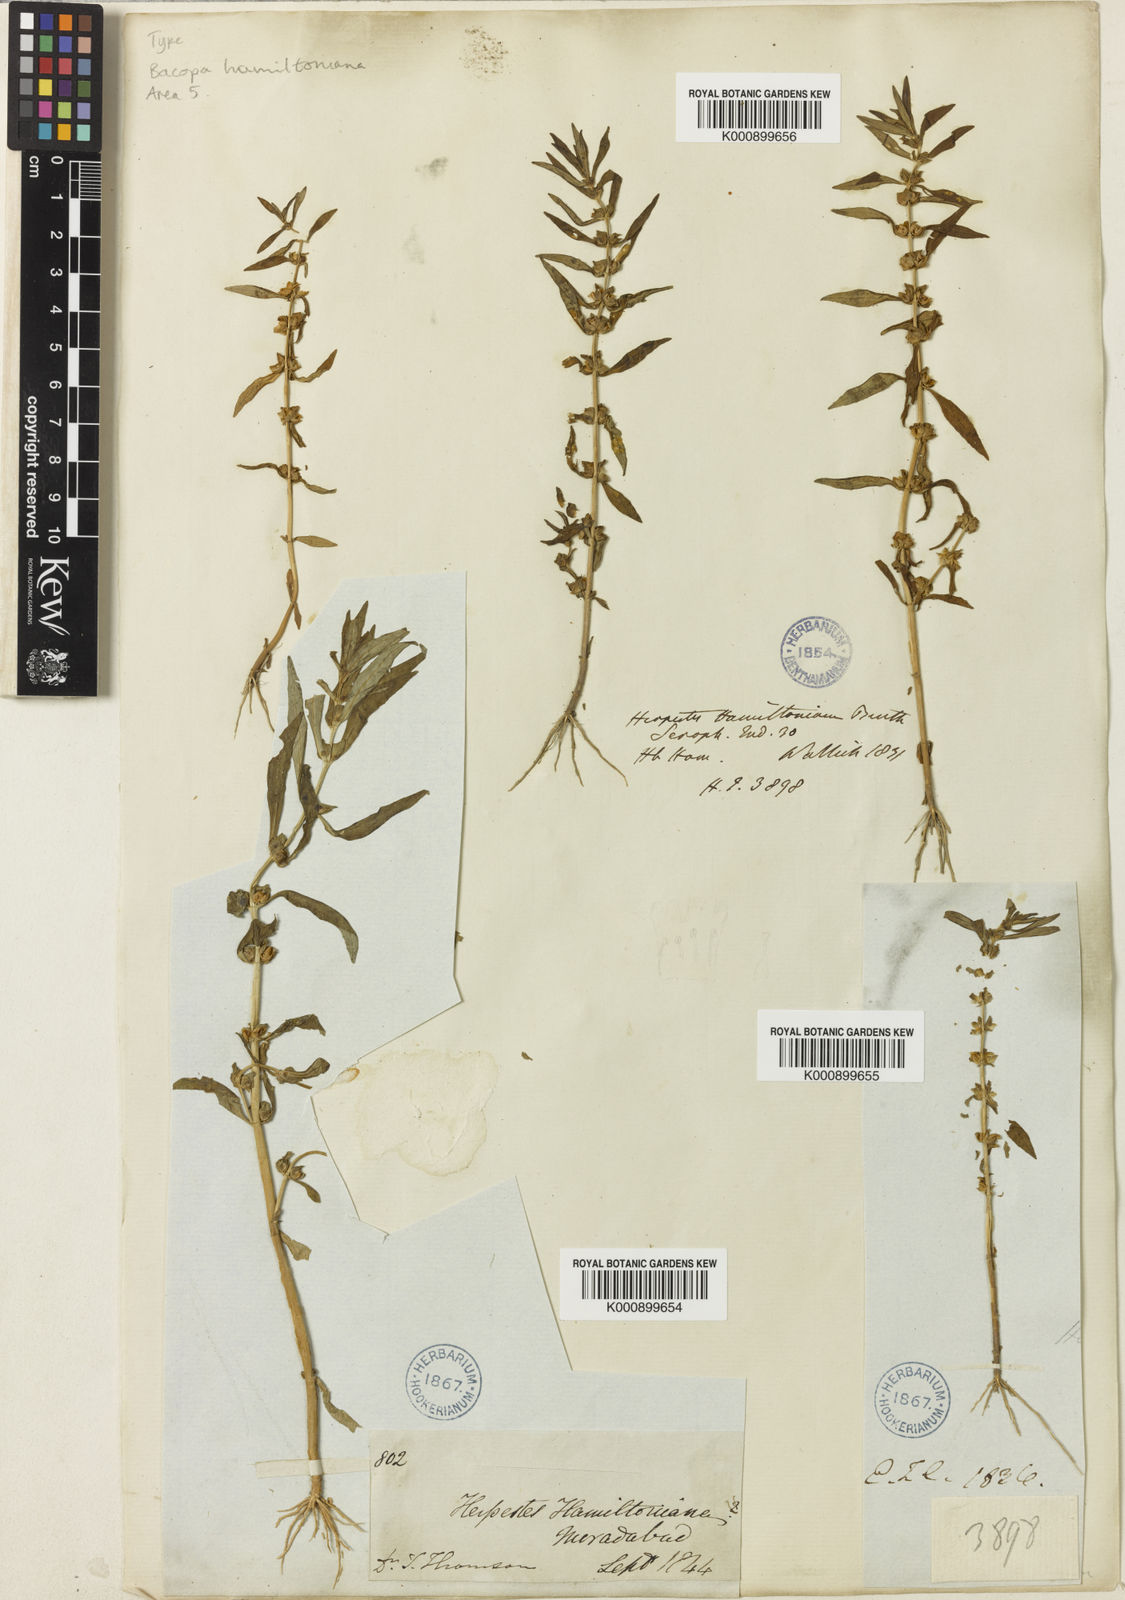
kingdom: Plantae
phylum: Tracheophyta
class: Magnoliopsida
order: Lamiales
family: Plantaginaceae
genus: Bacopa
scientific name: Bacopa hamiltoniana
